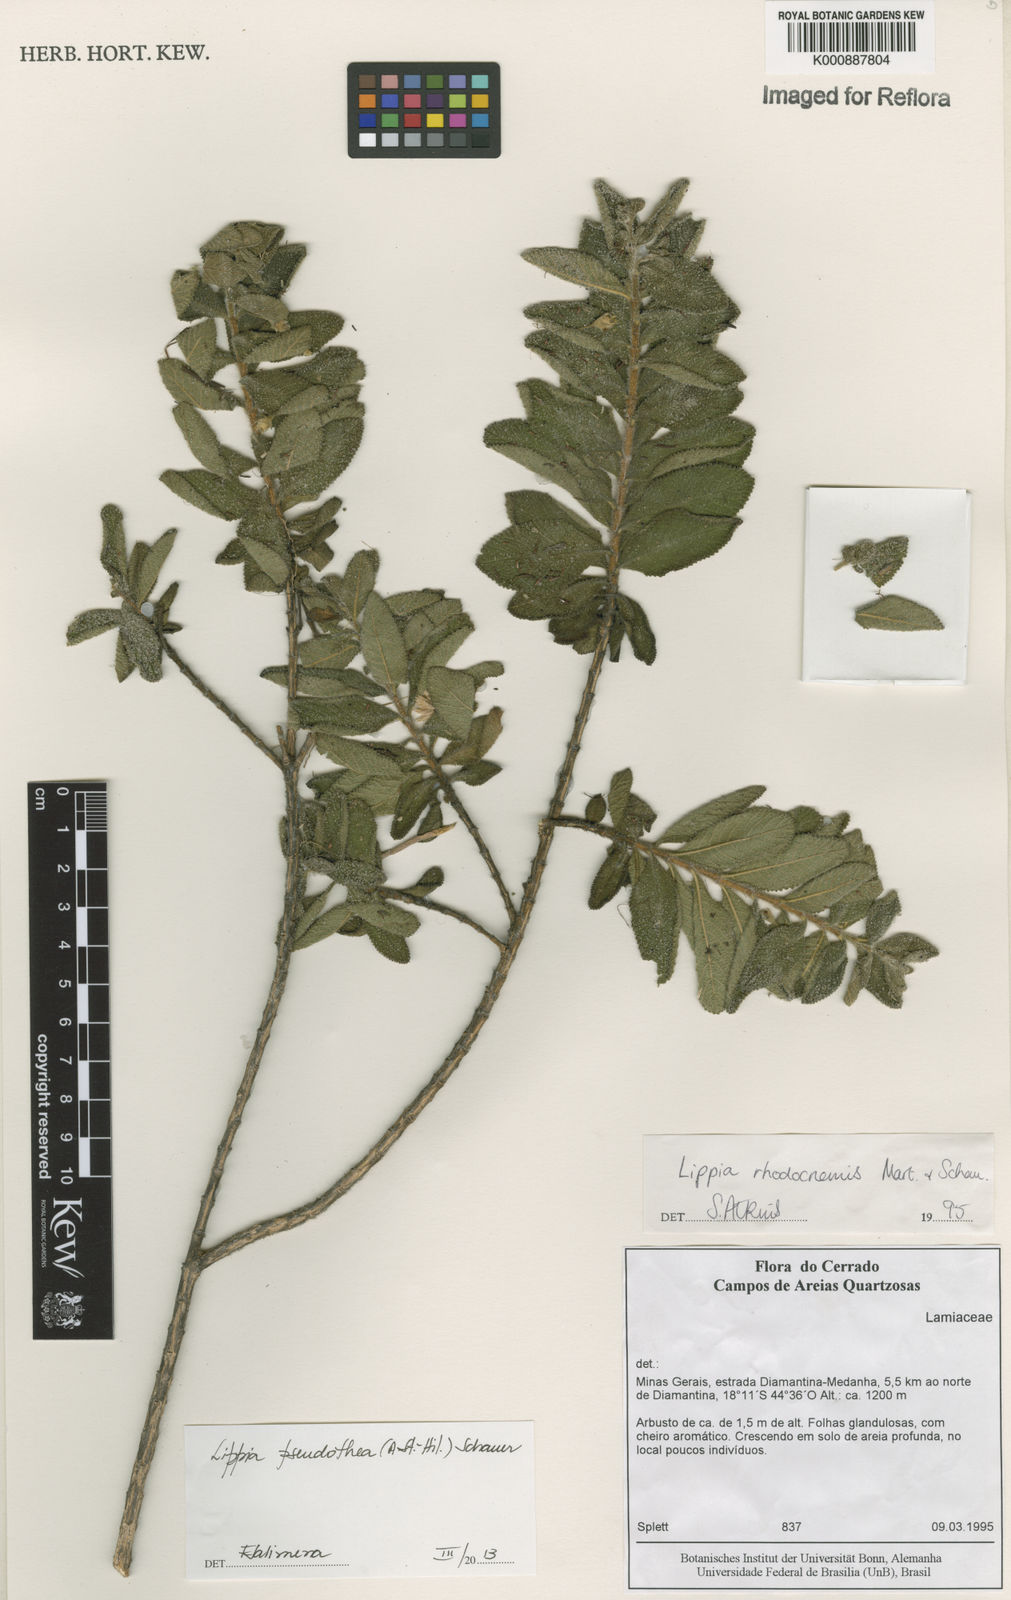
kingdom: Plantae
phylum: Tracheophyta
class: Magnoliopsida
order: Lamiales
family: Verbenaceae
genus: Lippia
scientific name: Lippia
